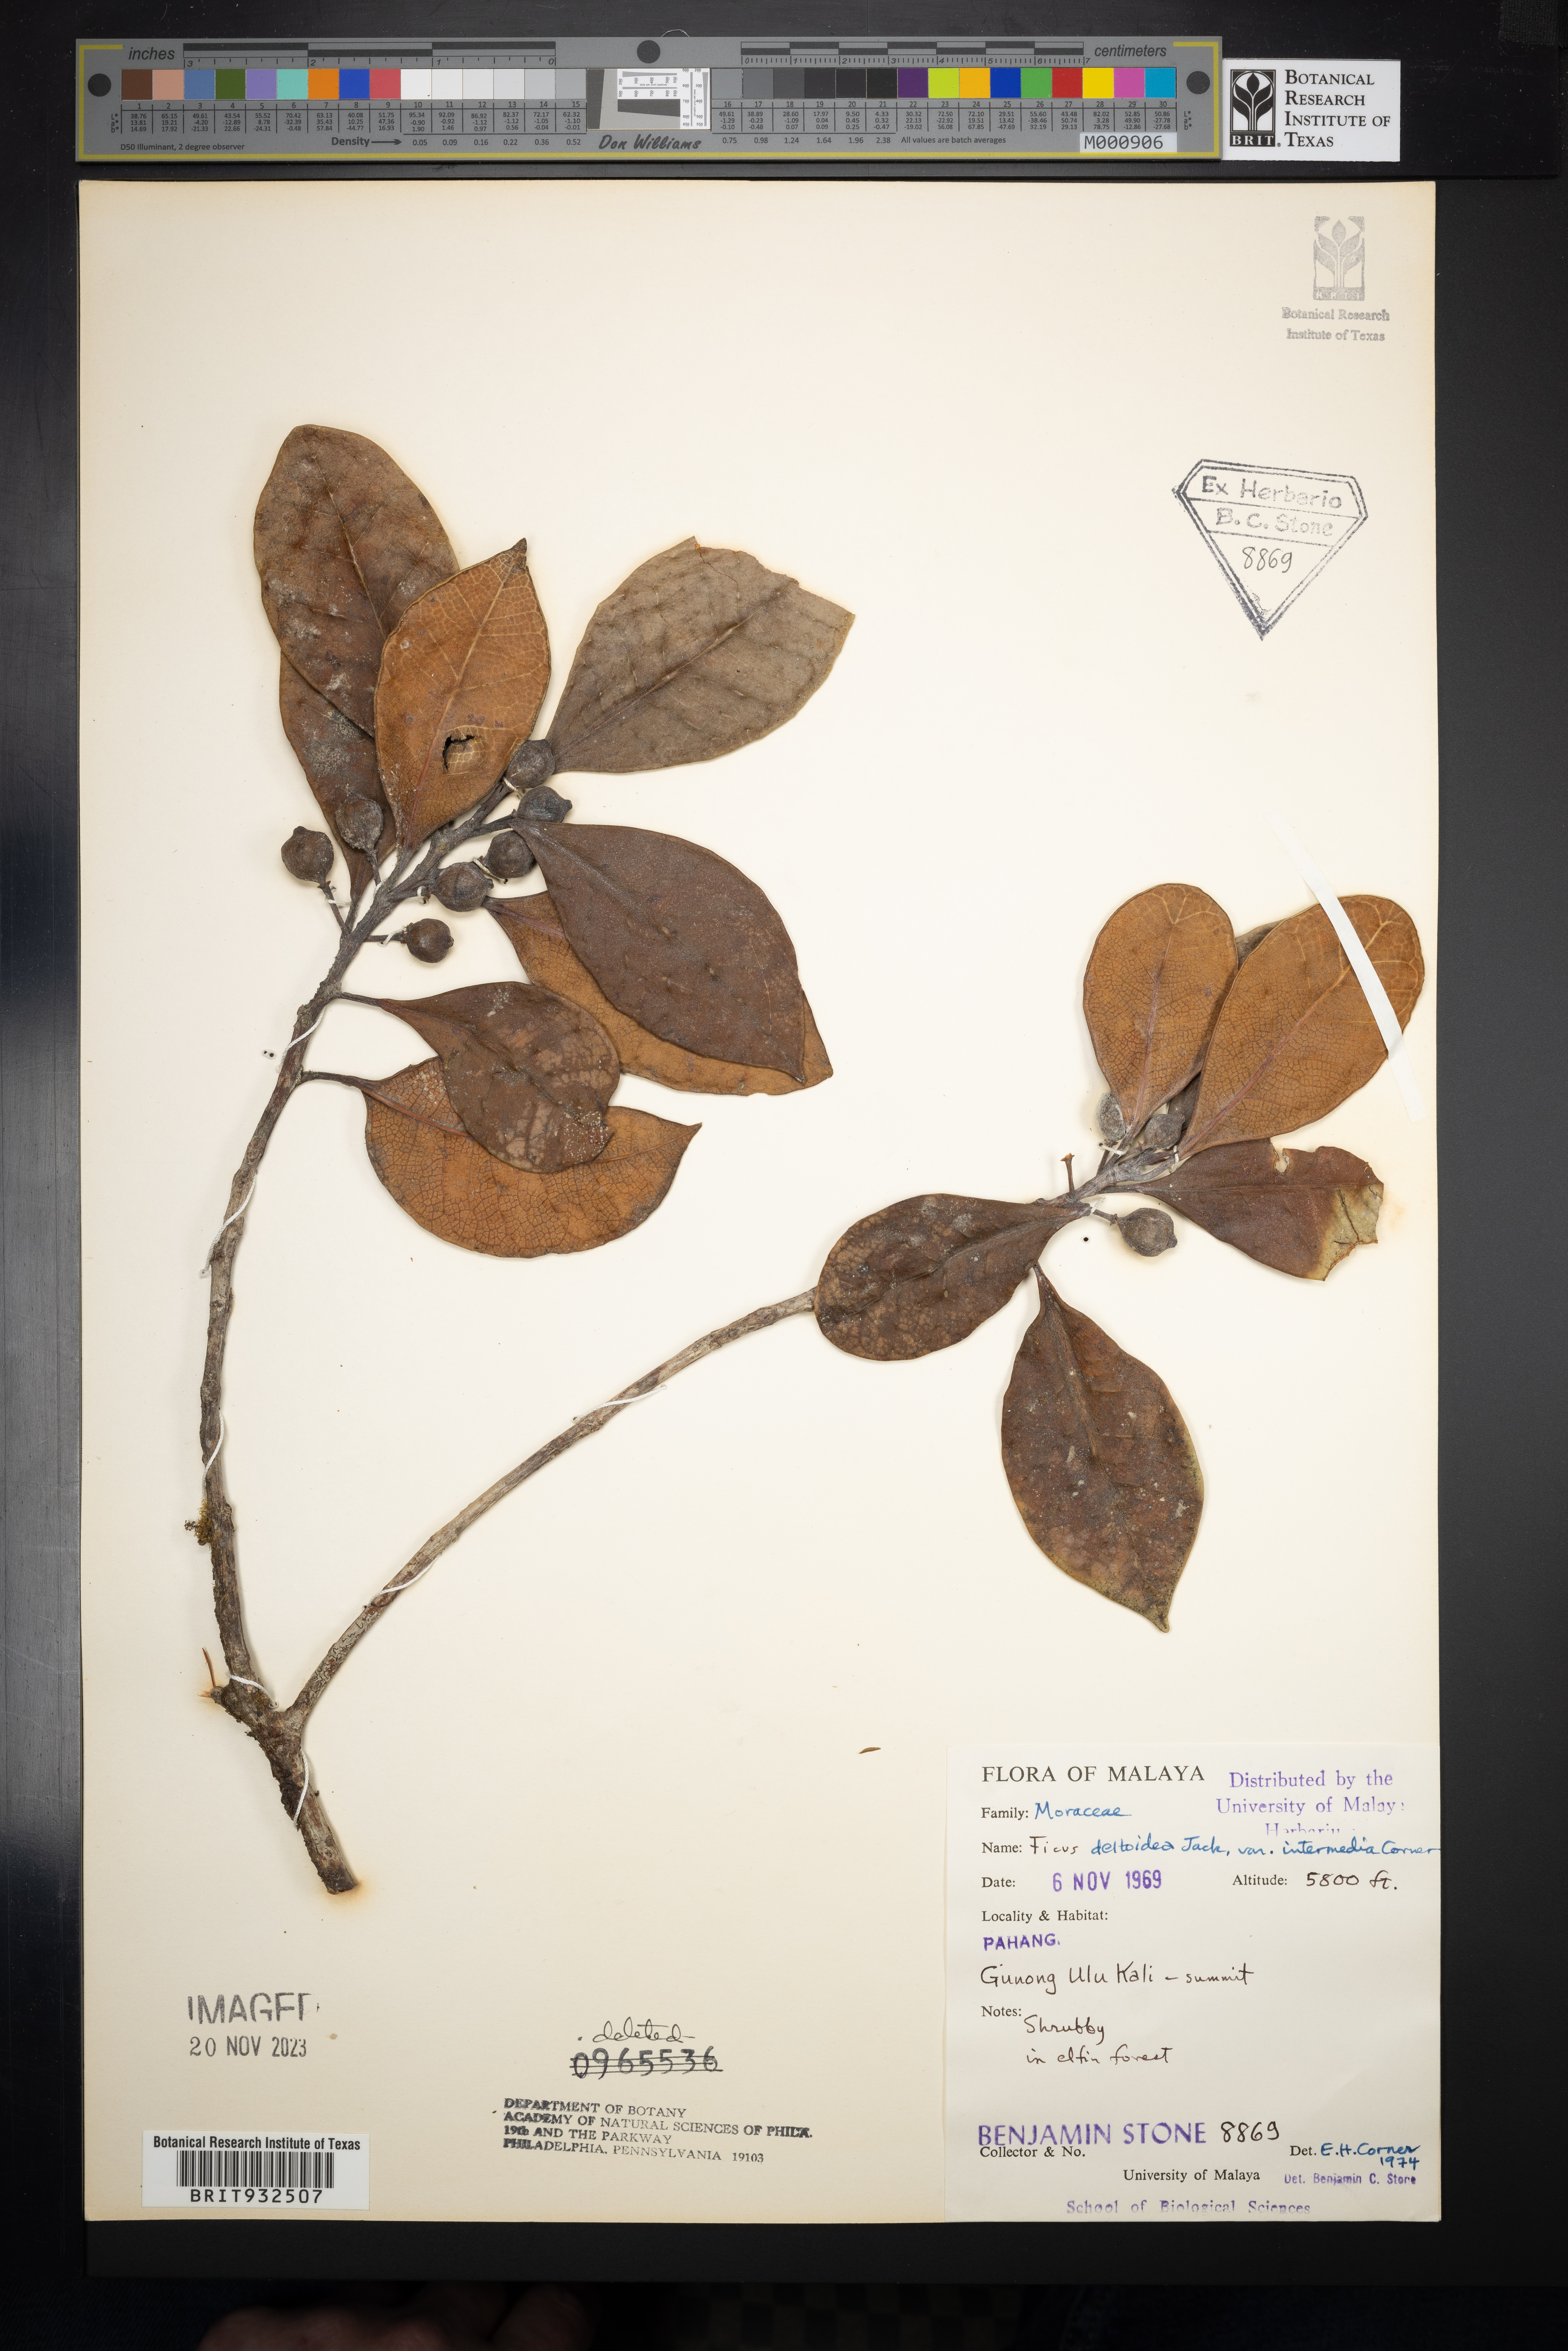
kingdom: Plantae
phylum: Tracheophyta
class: Magnoliopsida
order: Rosales
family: Moraceae
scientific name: Moraceae
